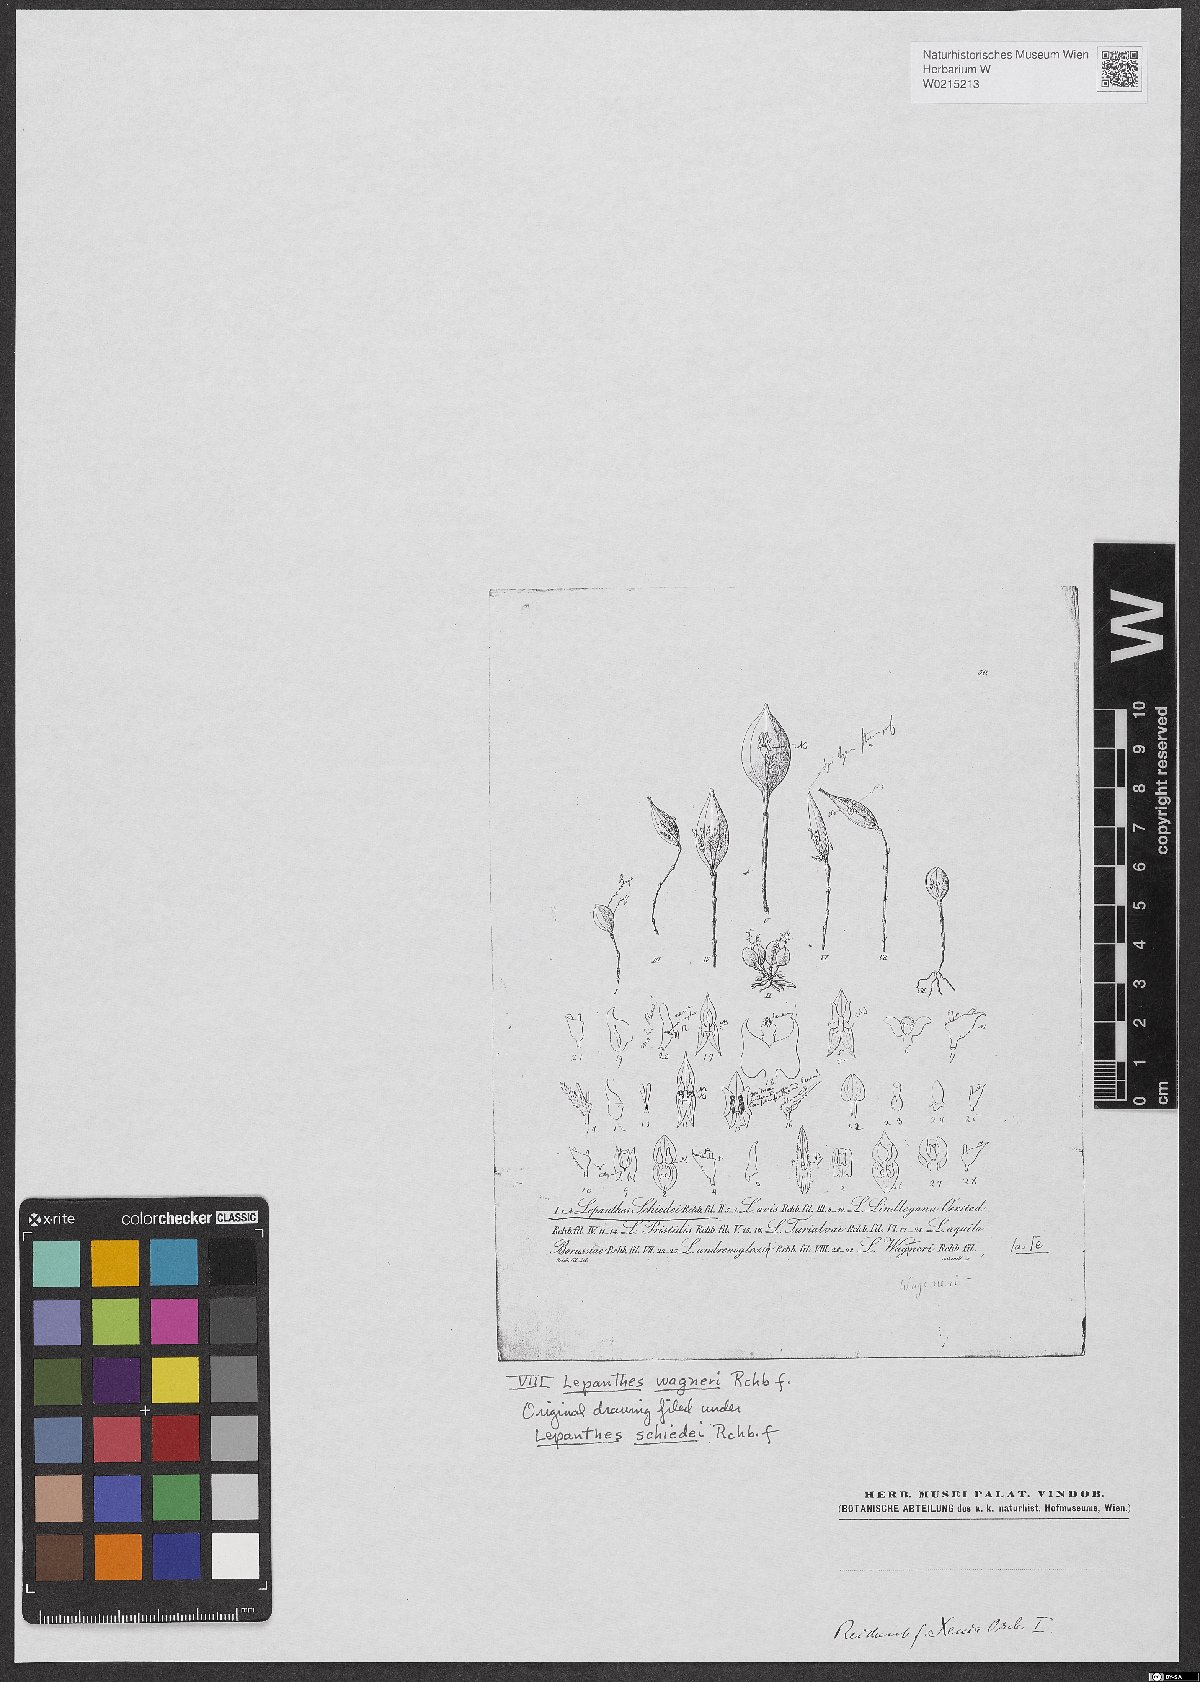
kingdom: Plantae
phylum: Tracheophyta
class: Liliopsida
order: Asparagales
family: Orchidaceae
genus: Lepanthes
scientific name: Lepanthes
